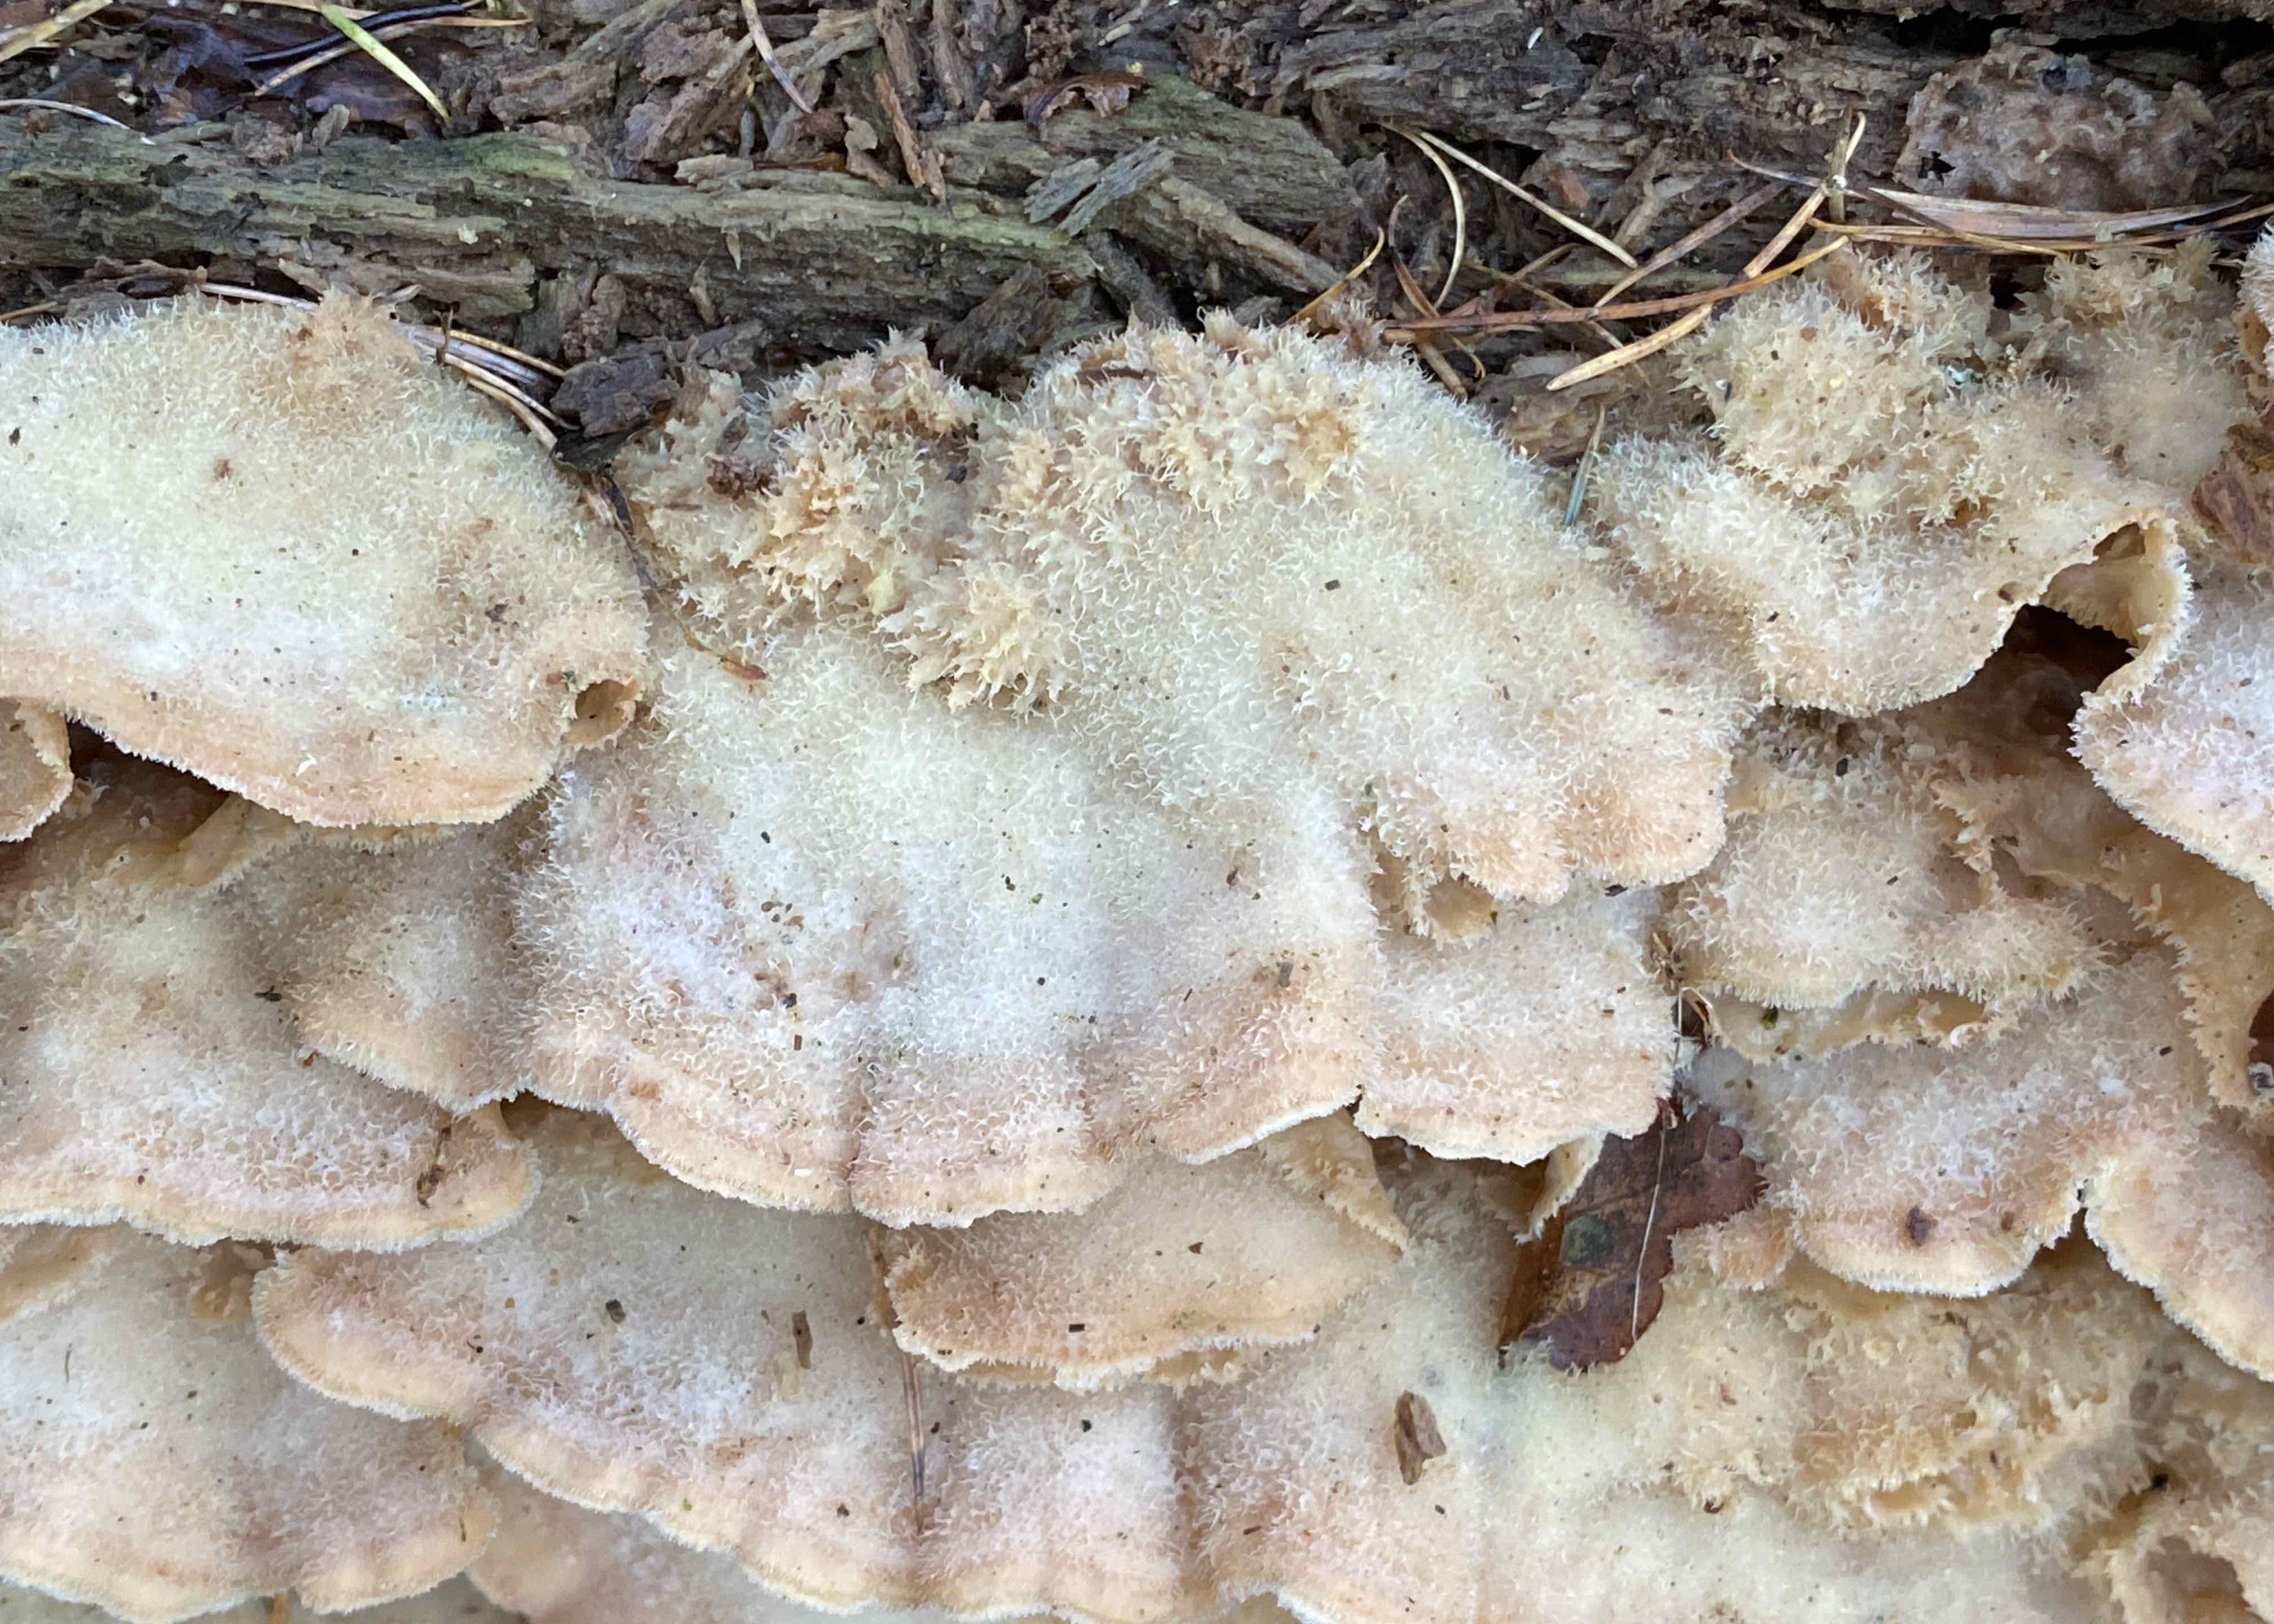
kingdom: Fungi
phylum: Basidiomycota
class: Agaricomycetes
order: Polyporales
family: Meruliaceae
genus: Phlebia
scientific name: Phlebia tremellosa
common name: bævrende åresvamp
